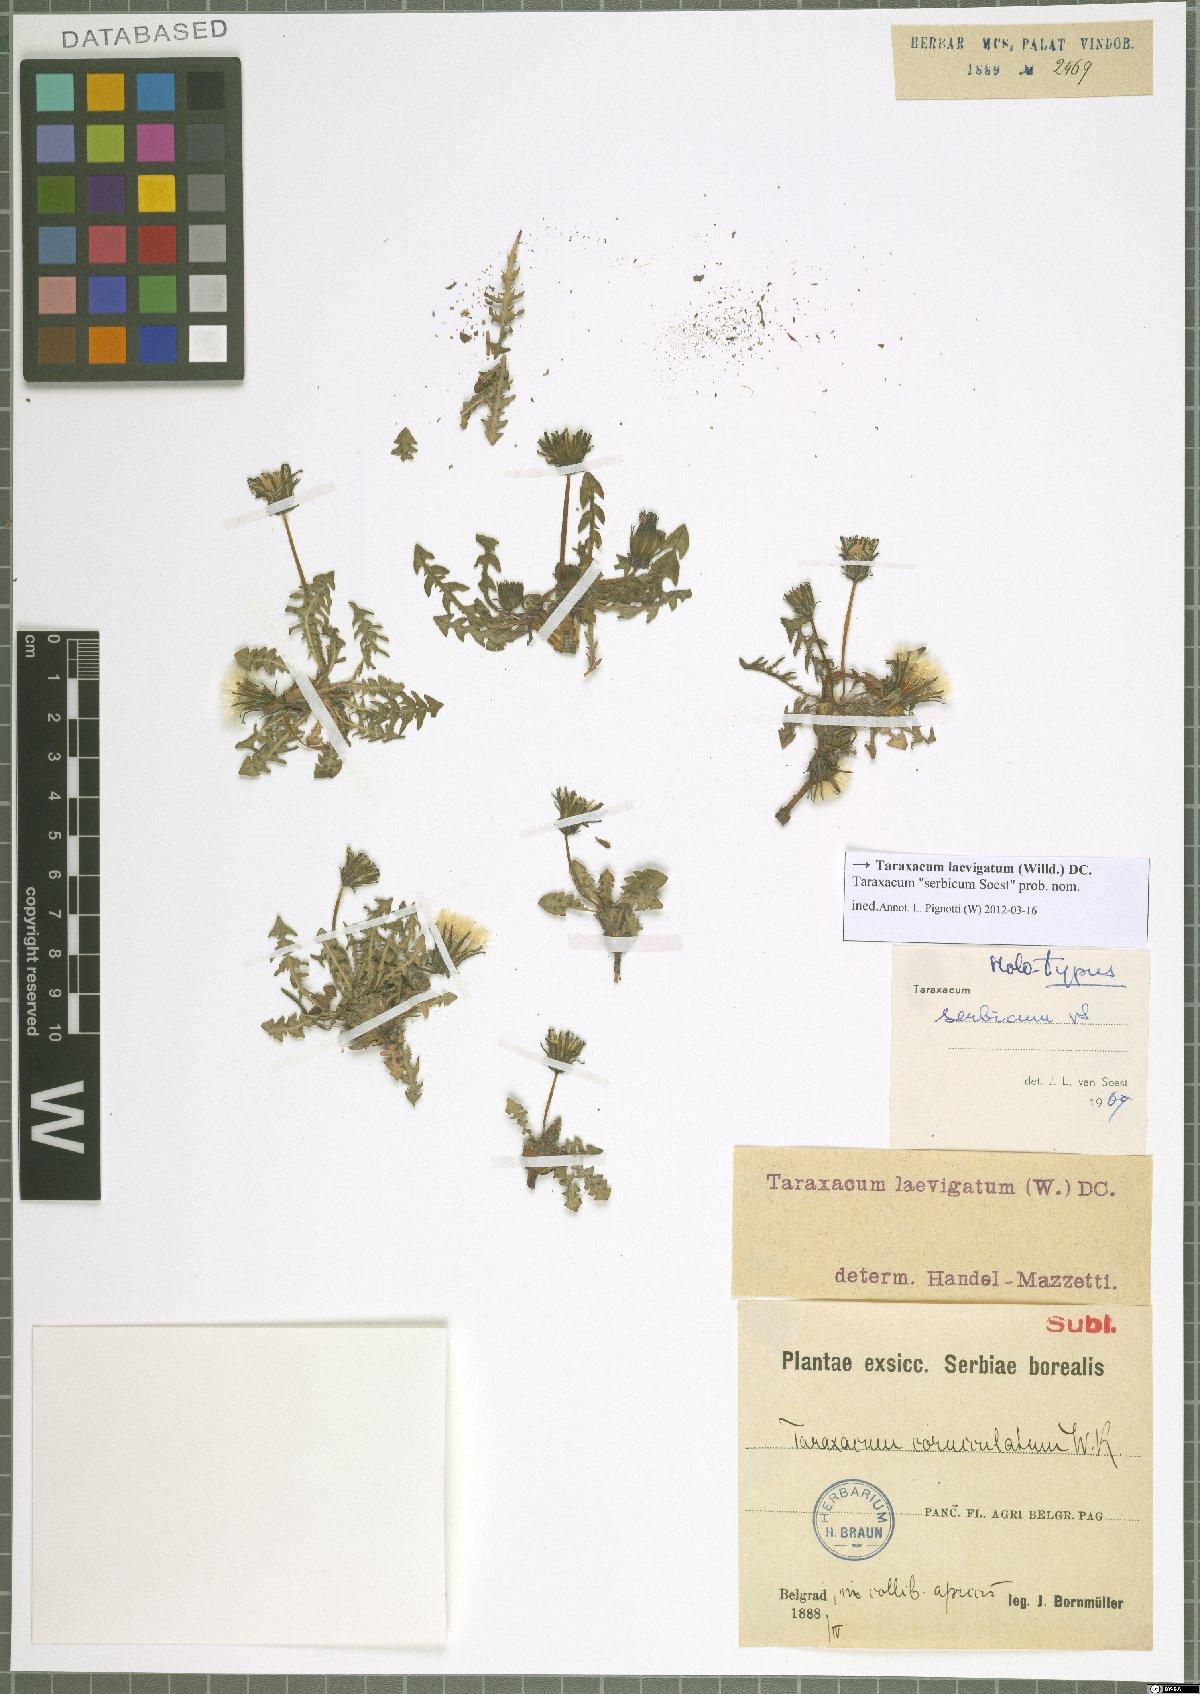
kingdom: Plantae
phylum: Tracheophyta
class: Magnoliopsida
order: Asterales
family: Asteraceae
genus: Taraxacum
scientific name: Taraxacum erythrospermum
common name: Rock dandelion
